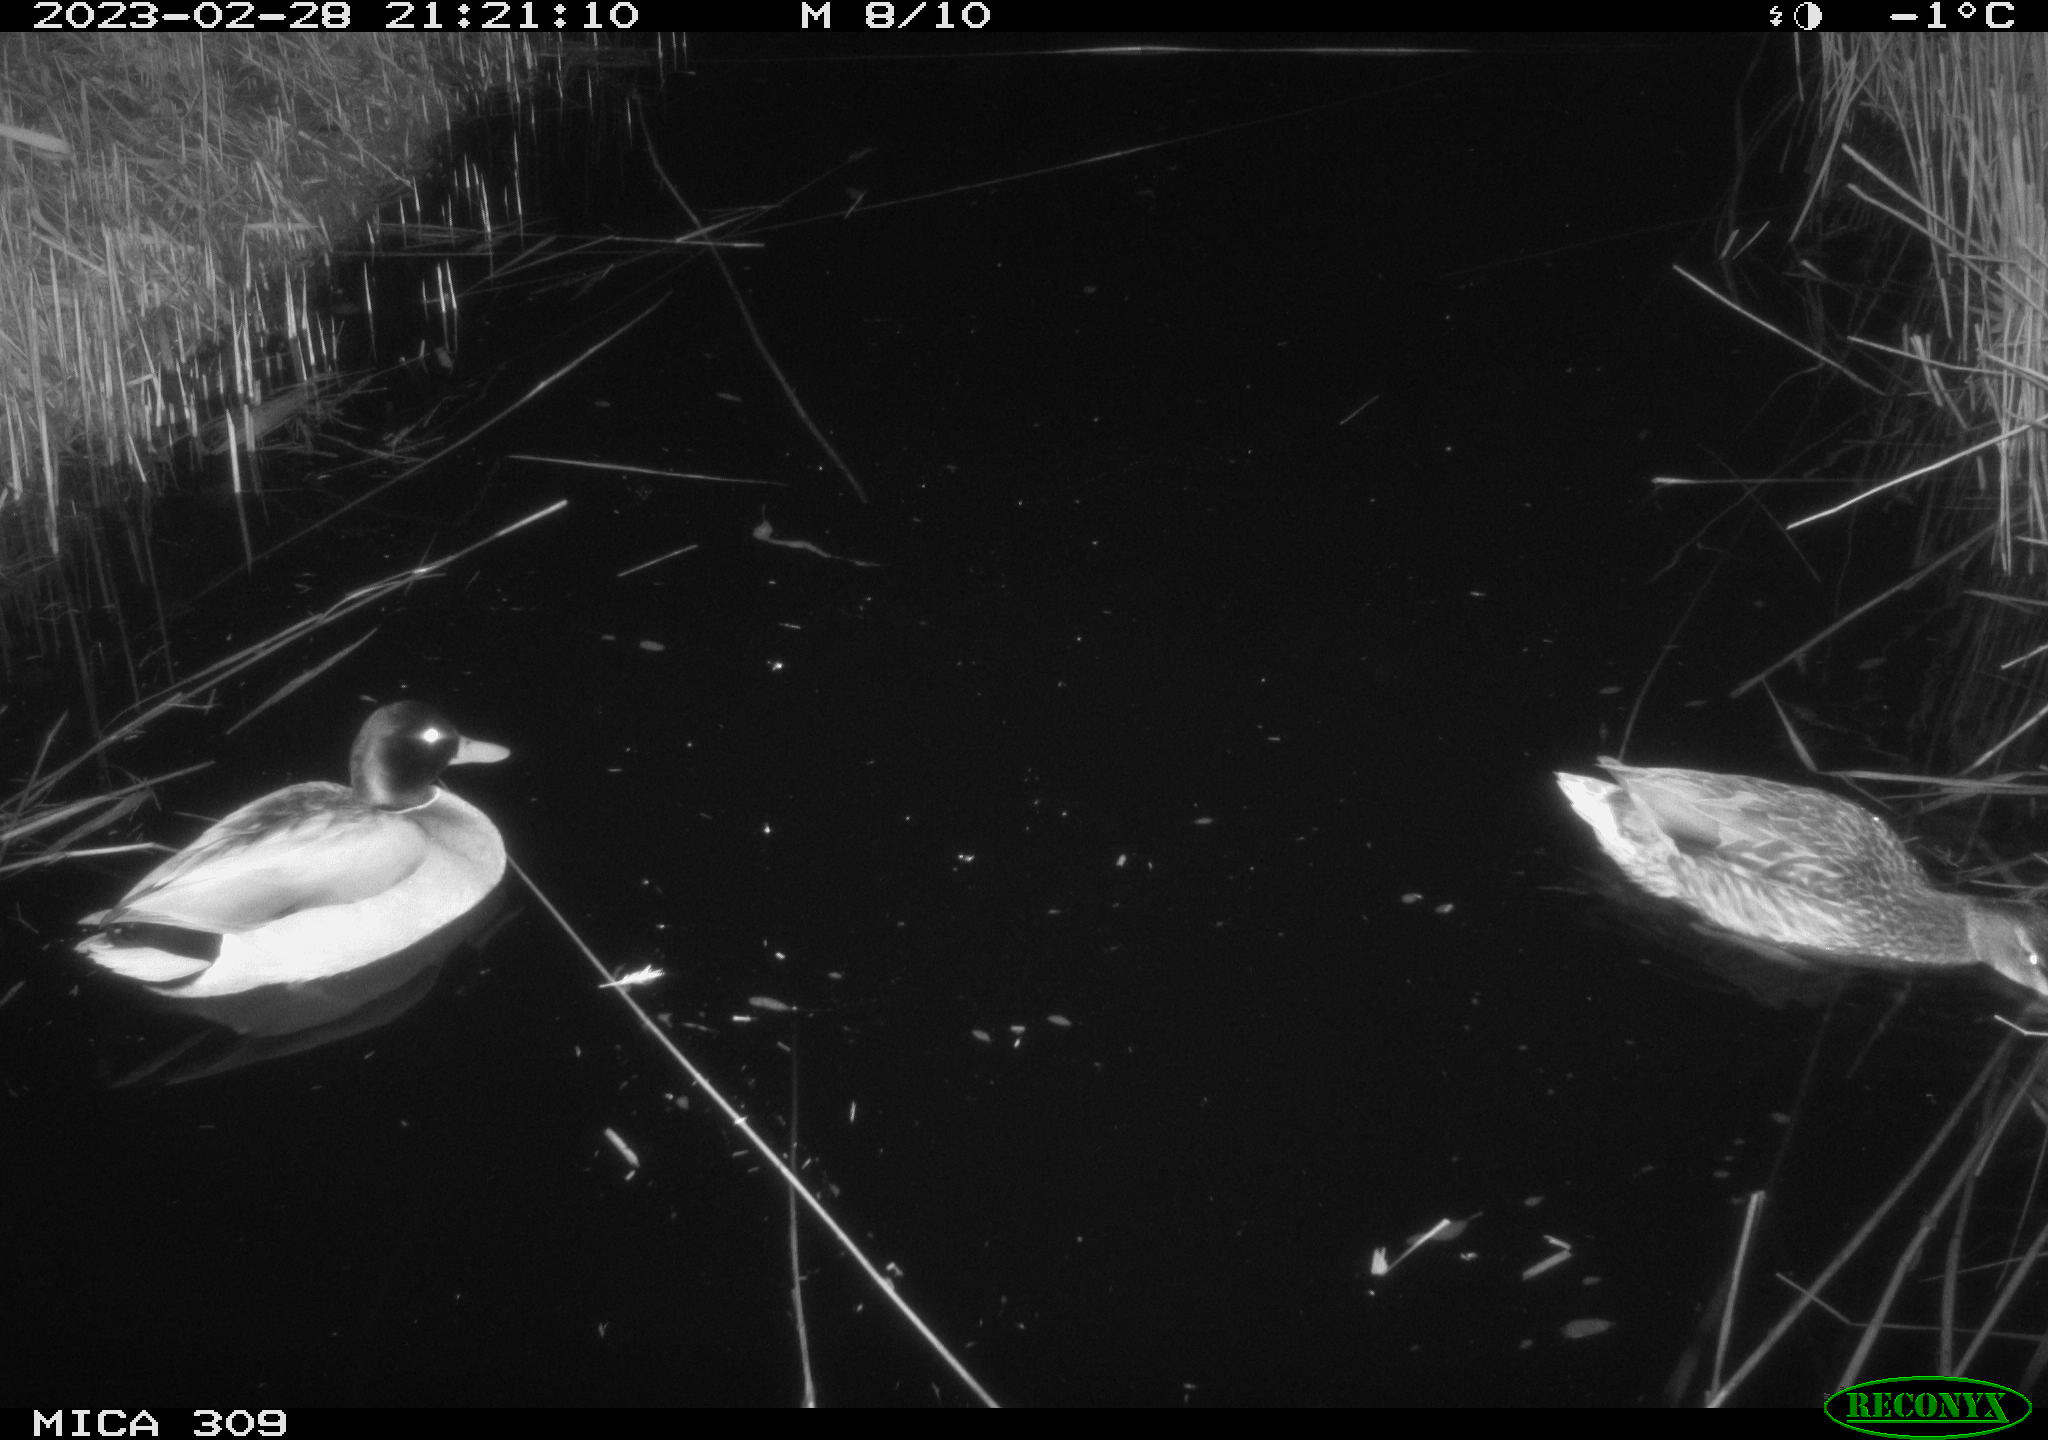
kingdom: Animalia
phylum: Chordata
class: Aves
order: Anseriformes
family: Anatidae
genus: Anas
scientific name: Anas
